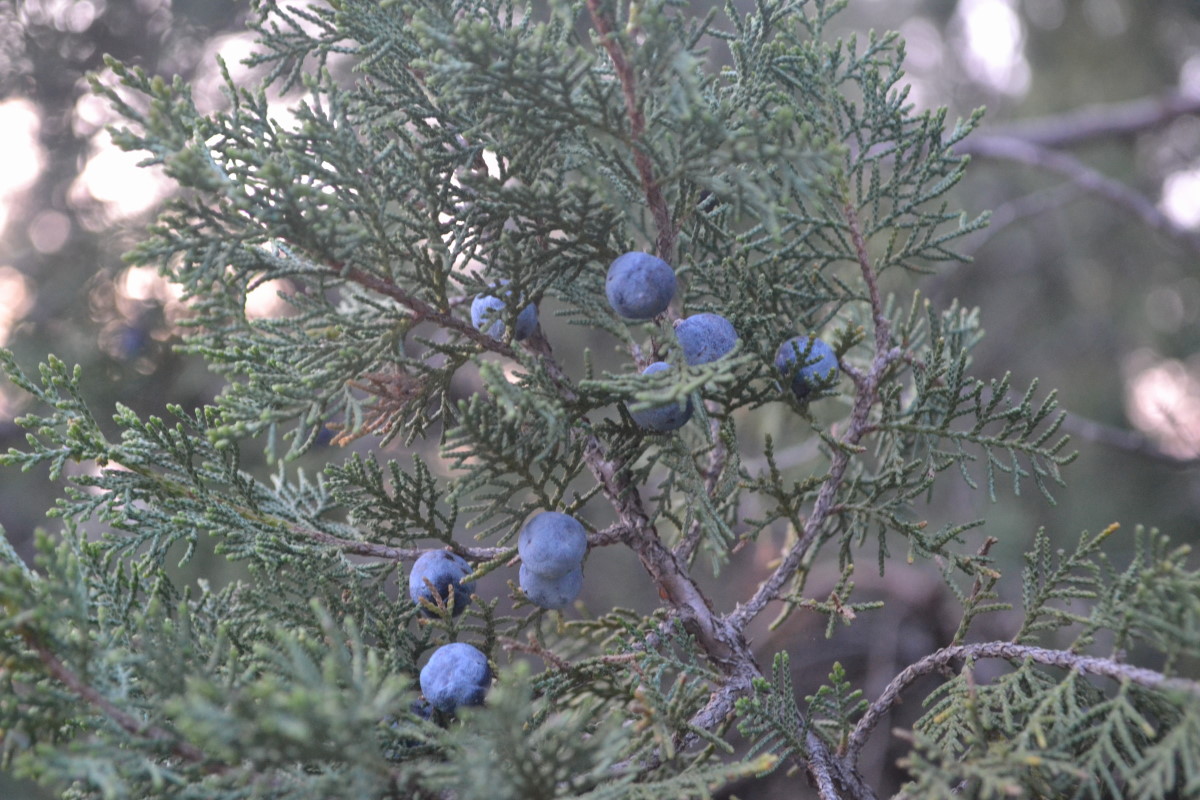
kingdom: Plantae
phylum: Tracheophyta
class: Pinopsida
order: Pinales
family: Cupressaceae
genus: Juniperus
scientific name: Juniperus excelsa
